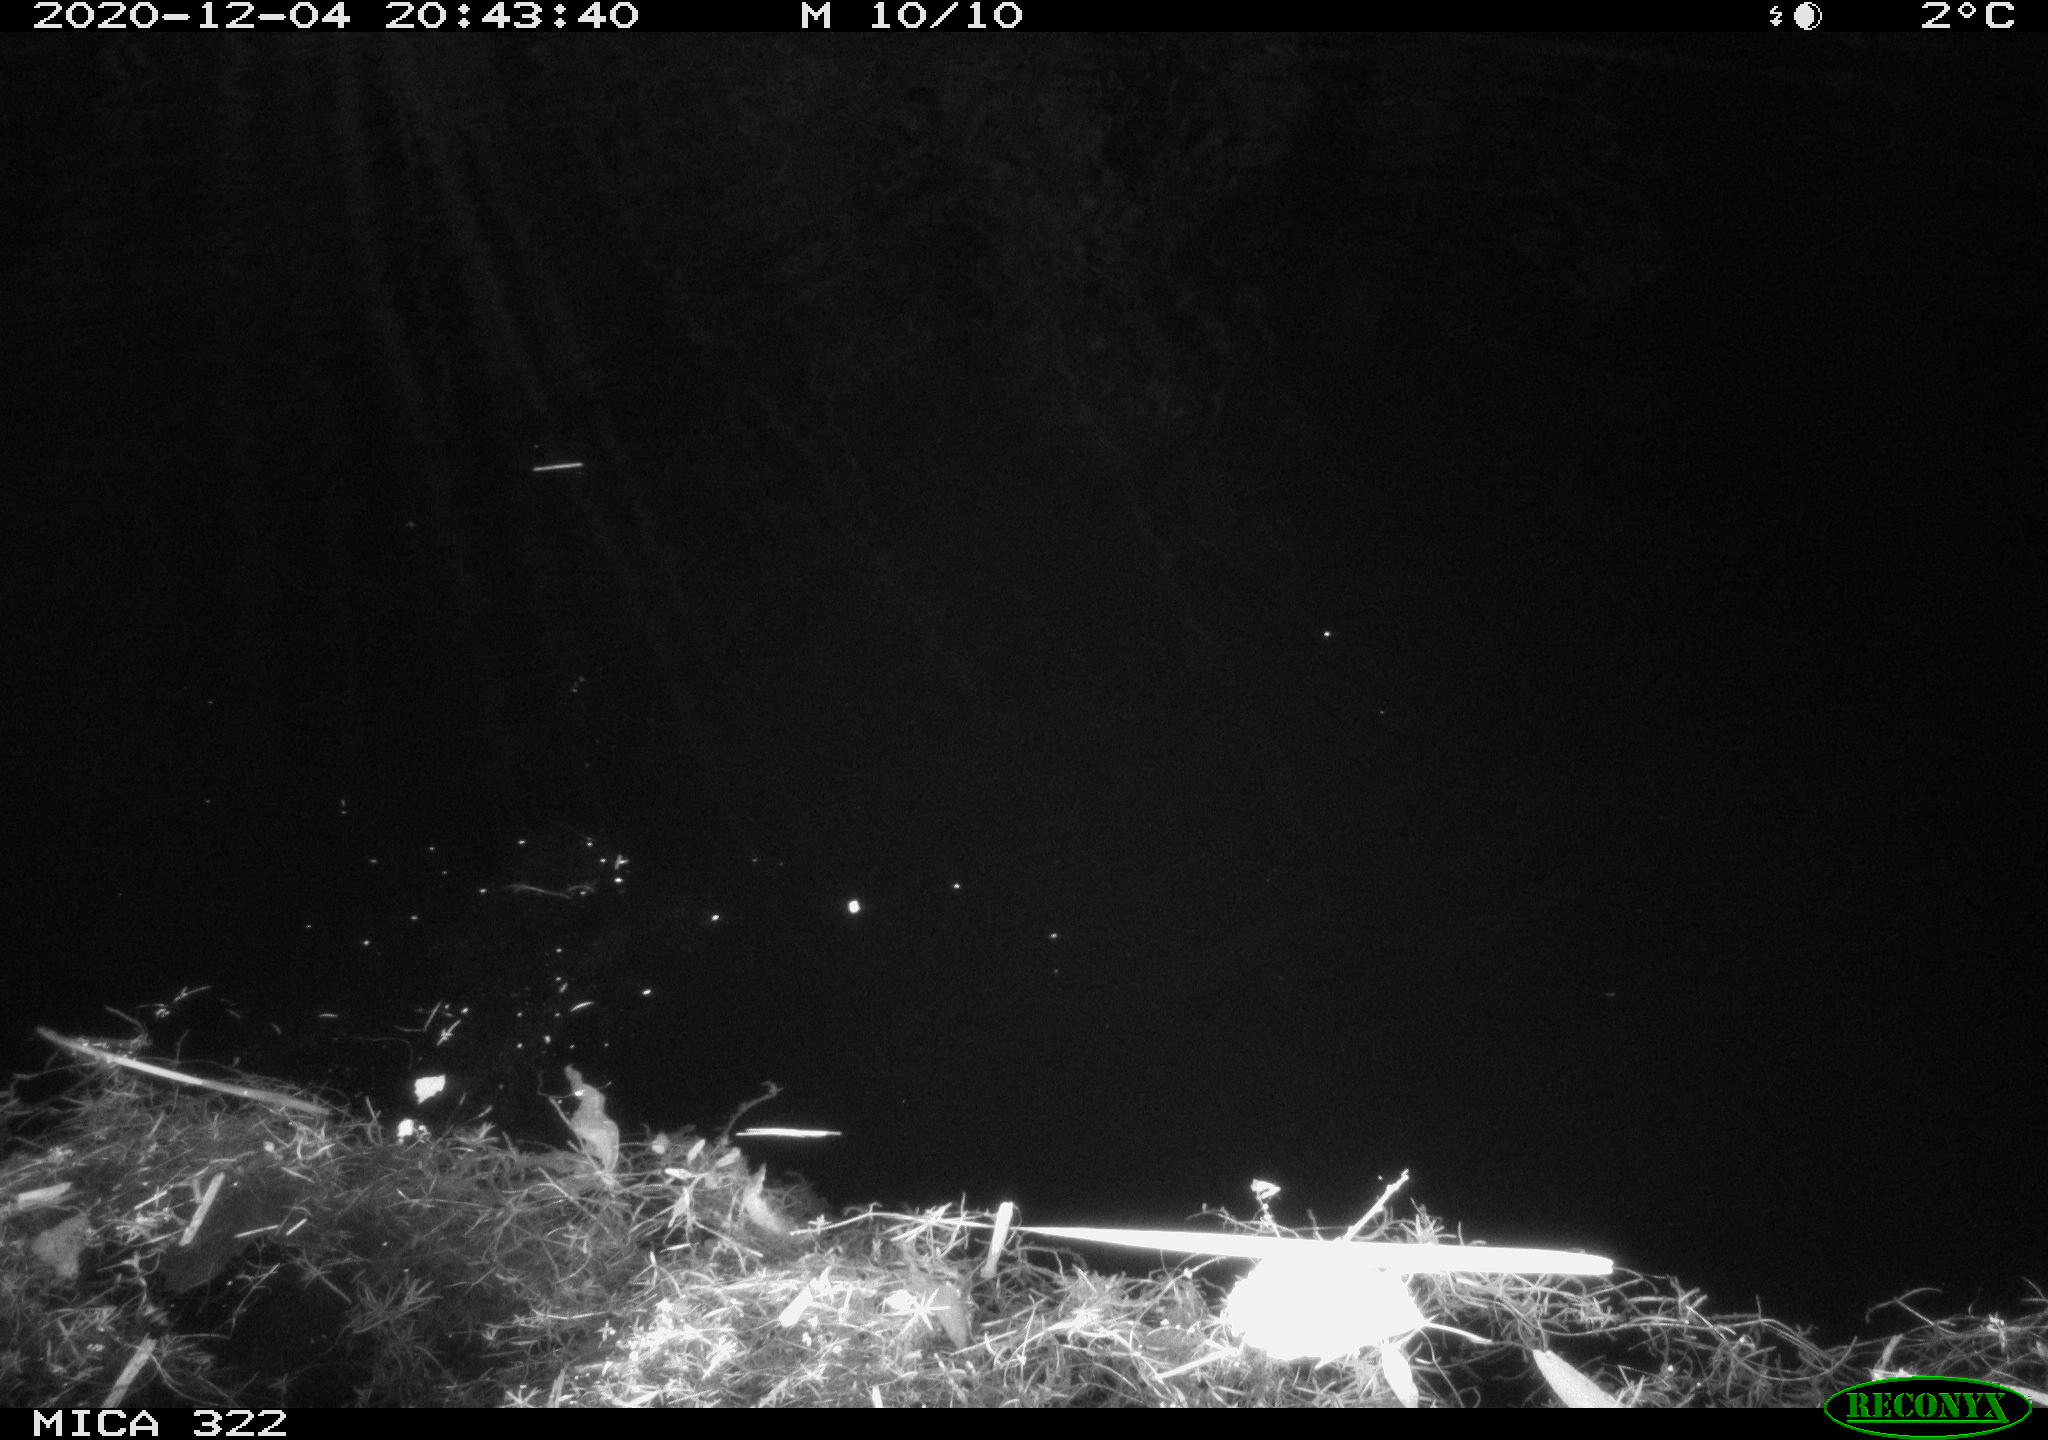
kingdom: Animalia
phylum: Chordata
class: Mammalia
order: Rodentia
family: Muridae
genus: Rattus
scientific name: Rattus norvegicus
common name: Brown rat
